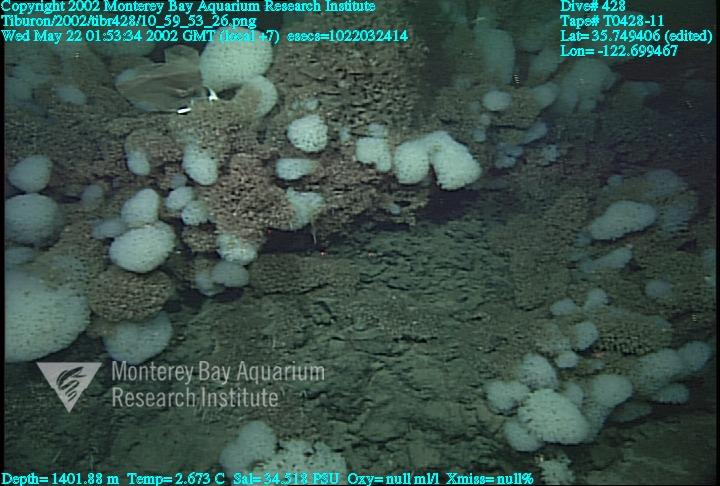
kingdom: Animalia
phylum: Porifera
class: Hexactinellida
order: Sceptrulophora
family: Farreidae
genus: Farrea
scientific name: Farrea occa
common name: Reversed glass sponge
